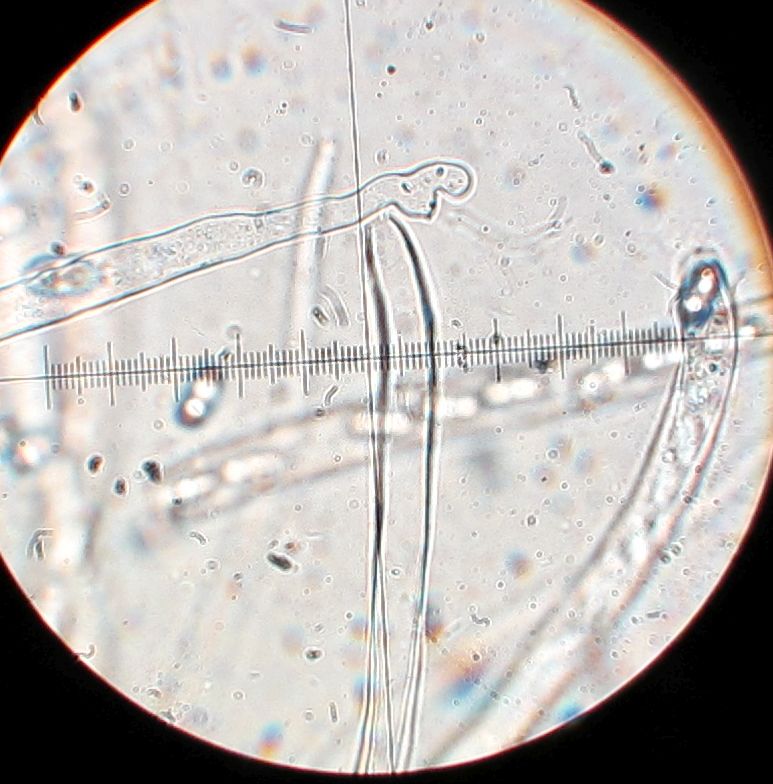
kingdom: Fungi
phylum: Ascomycota
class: Pezizomycetes
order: Pezizales
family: Otideaceae
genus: Otidea
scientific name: Otidea minor
